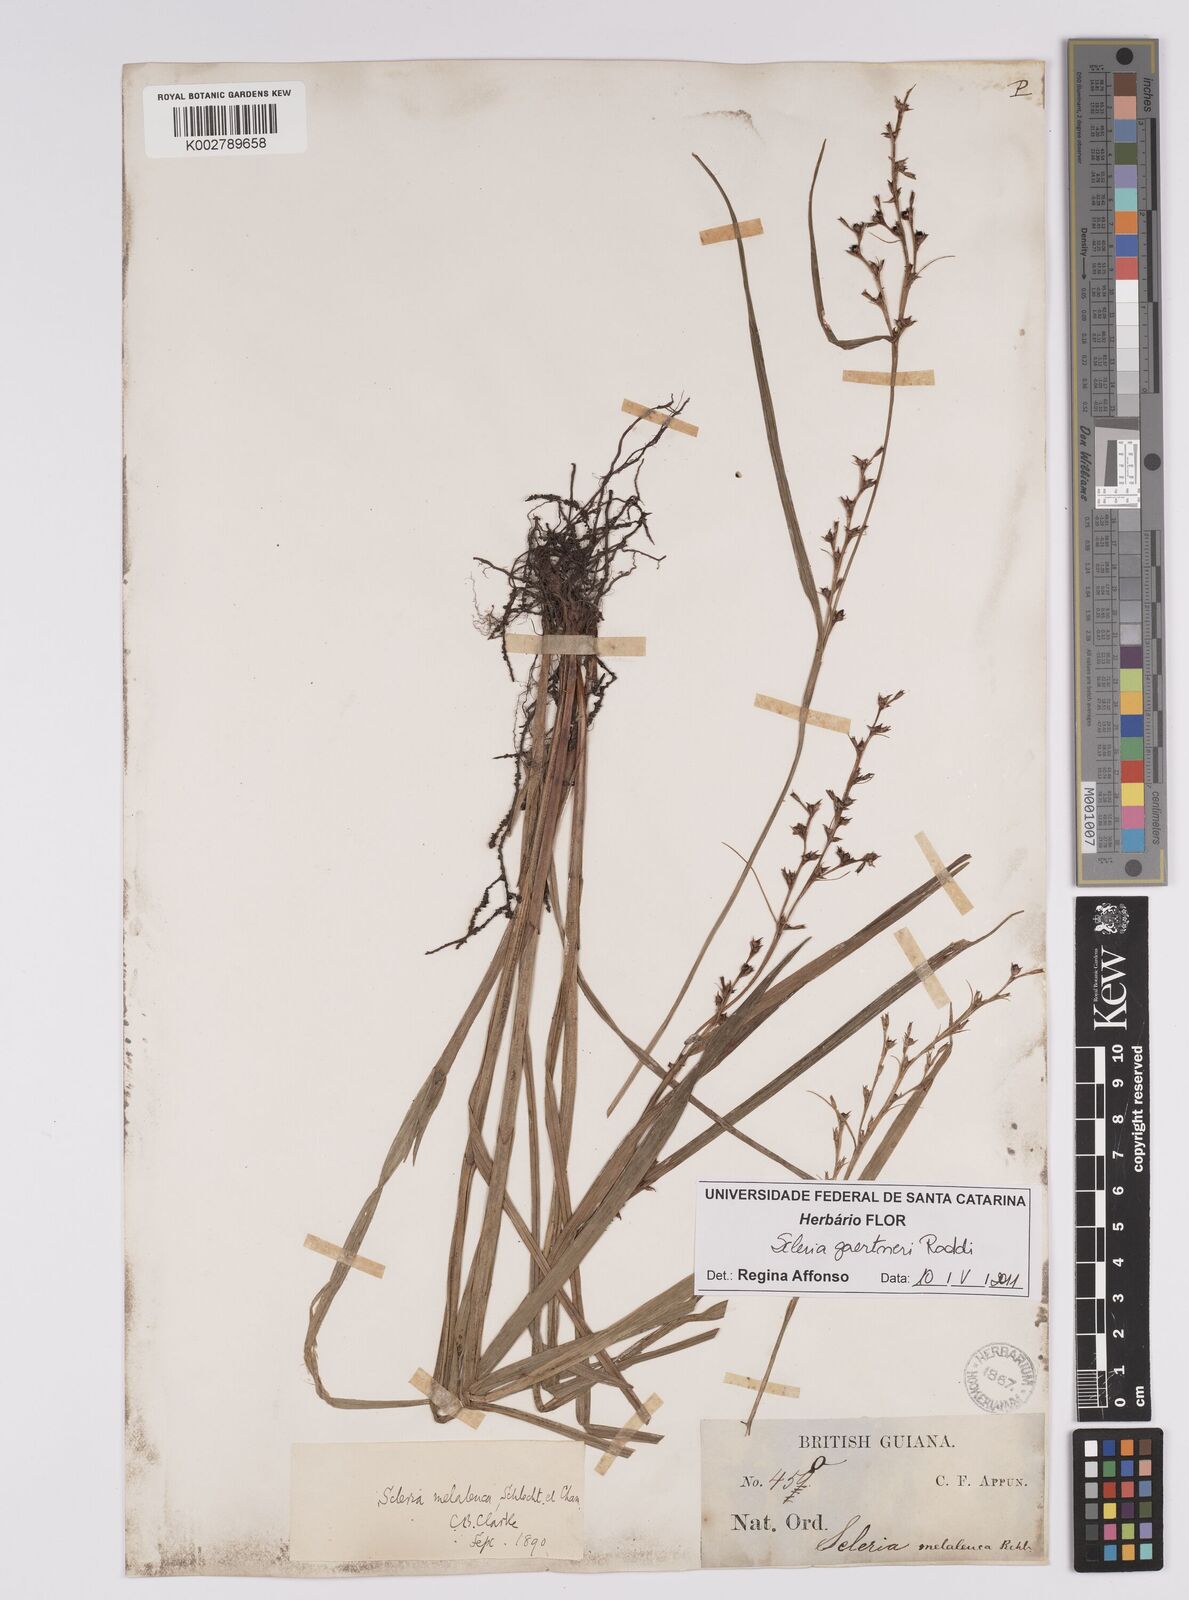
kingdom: Plantae
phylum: Tracheophyta
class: Liliopsida
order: Poales
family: Cyperaceae
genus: Scleria
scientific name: Scleria gaertneri
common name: Cortadera blanca
